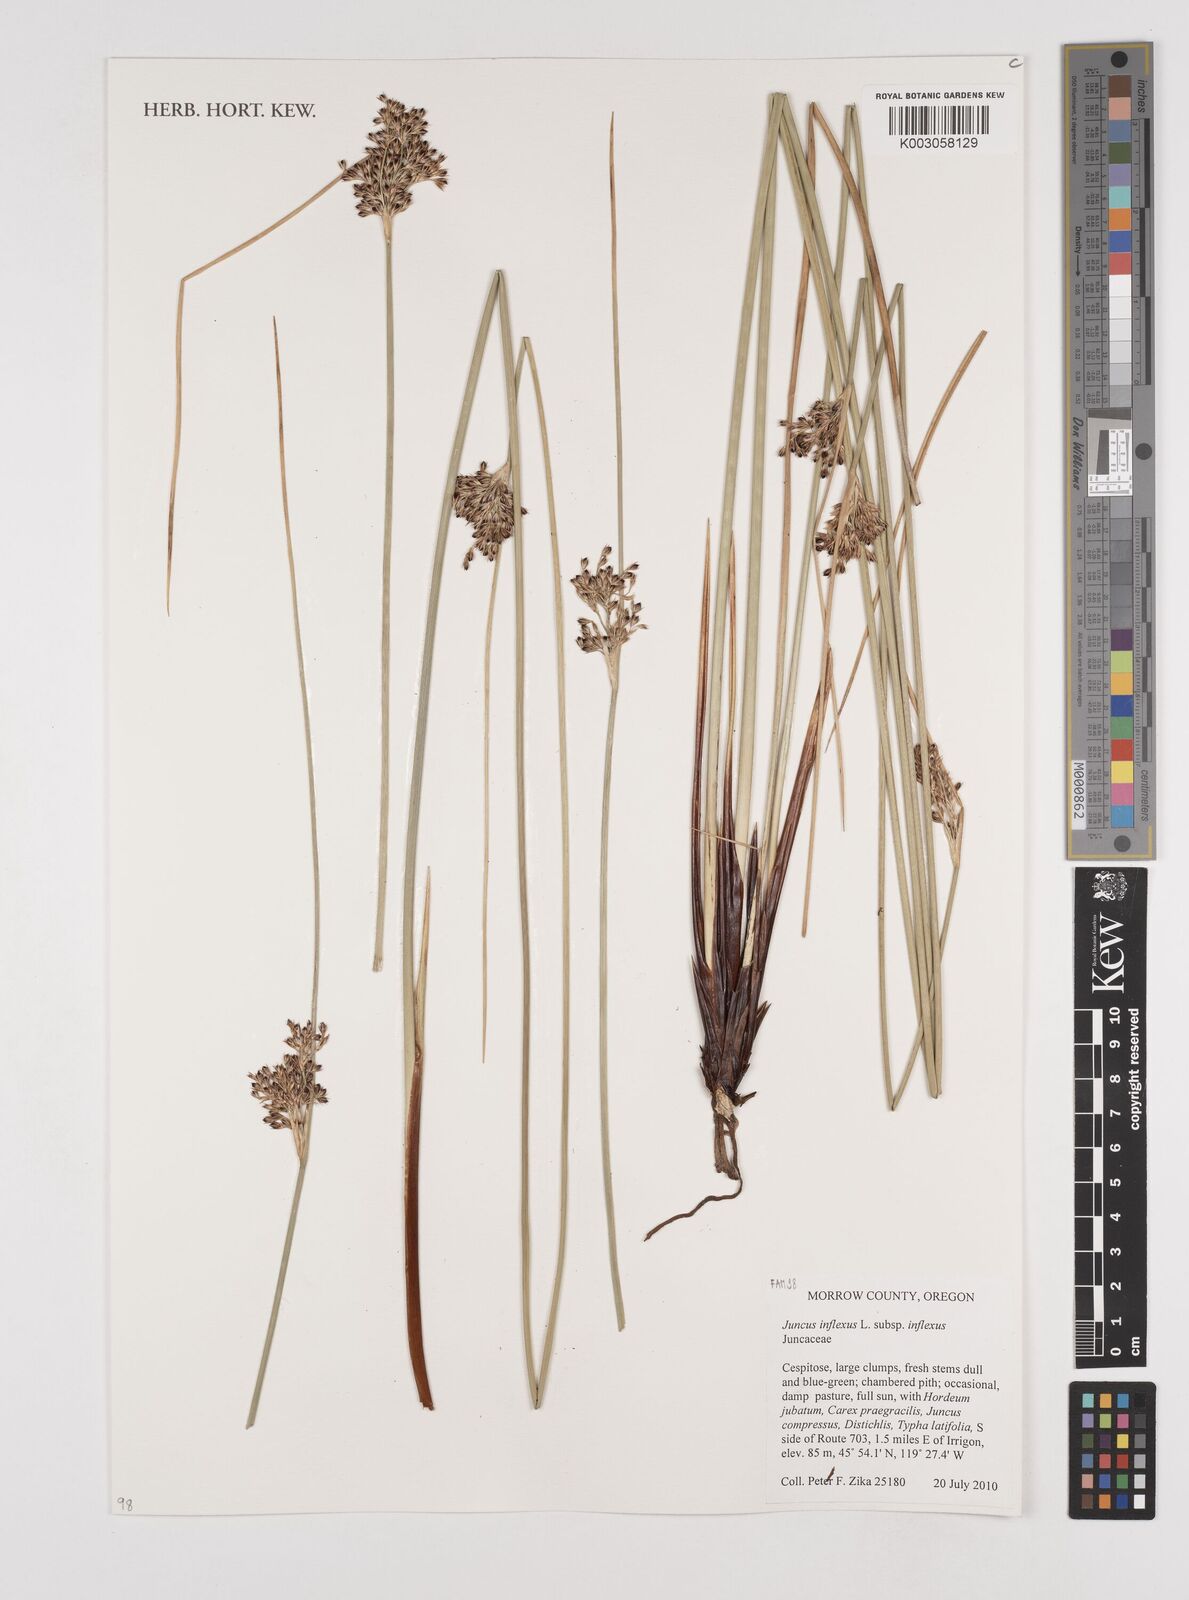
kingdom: Plantae
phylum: Tracheophyta
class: Liliopsida
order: Poales
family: Juncaceae
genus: Juncus
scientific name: Juncus inflexus
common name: Hard rush
